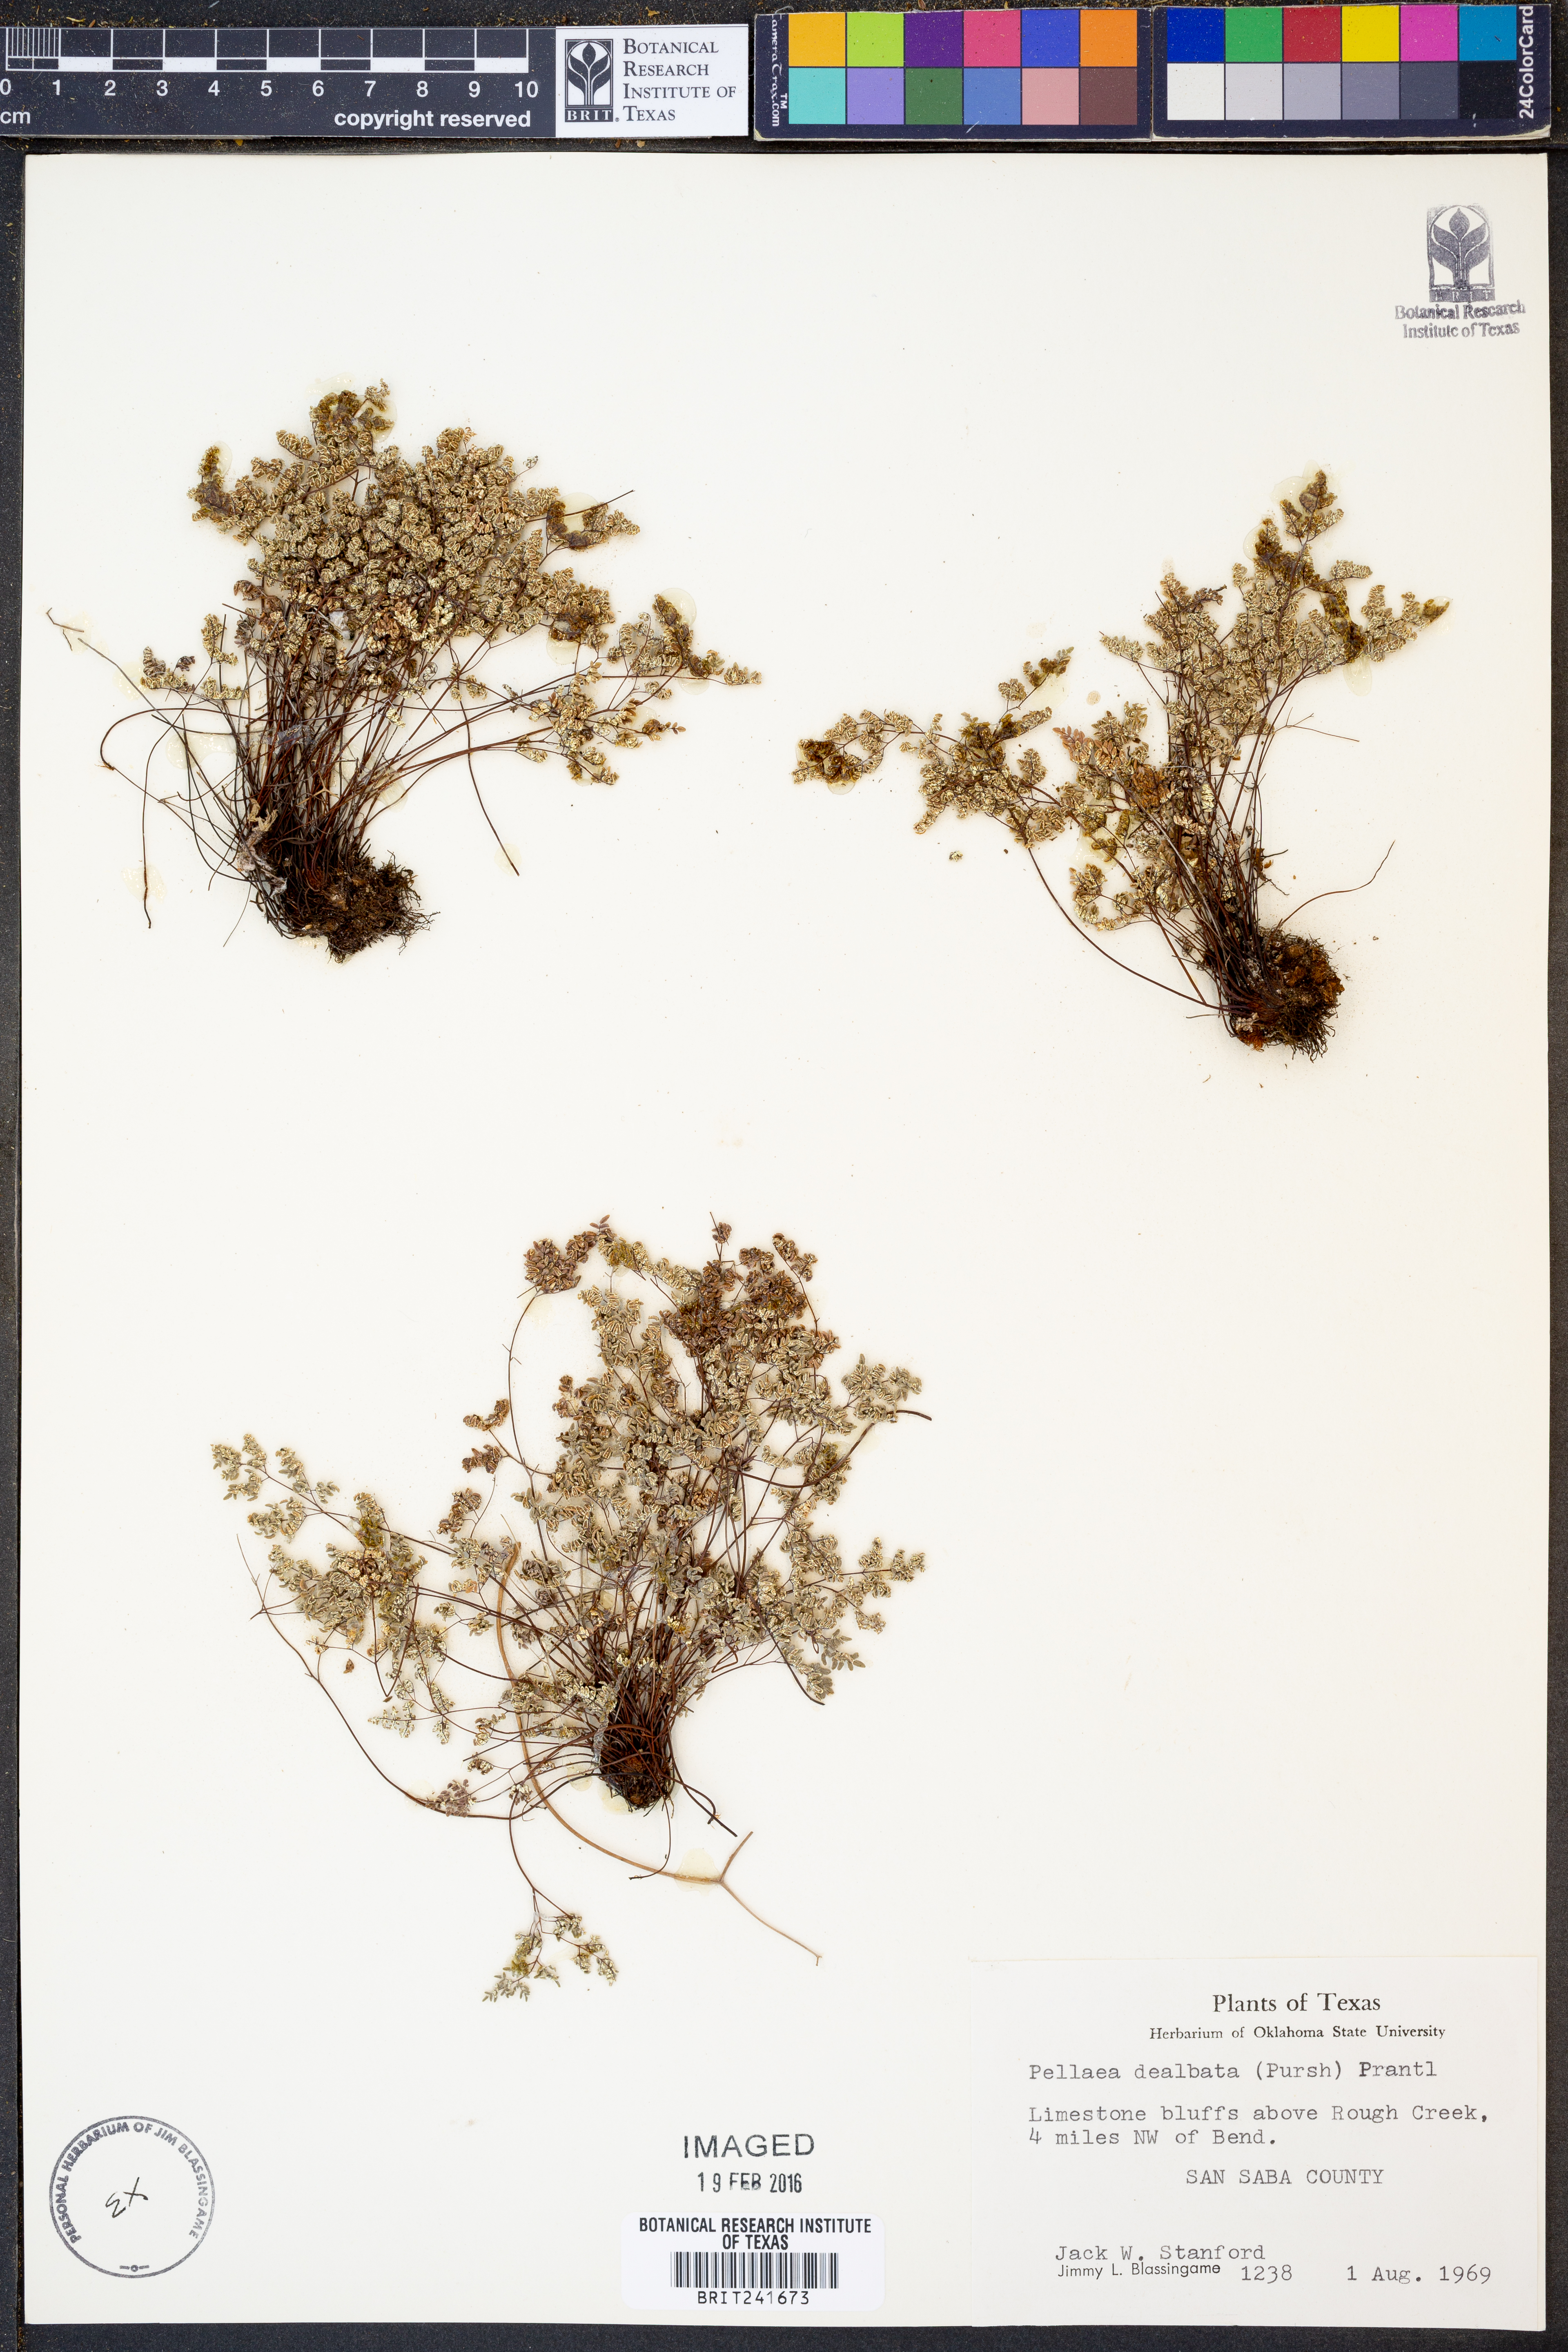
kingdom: Plantae
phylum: Tracheophyta
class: Polypodiopsida
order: Polypodiales
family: Pteridaceae
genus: Argyrochosma
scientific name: Argyrochosma dealbata
